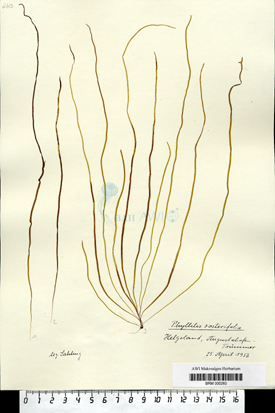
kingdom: Chromista
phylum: Ochrophyta
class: Phaeophyceae
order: Scytosiphonales
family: Scytosiphonaceae
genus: Petalonia
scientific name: Petalonia zosterifolia
